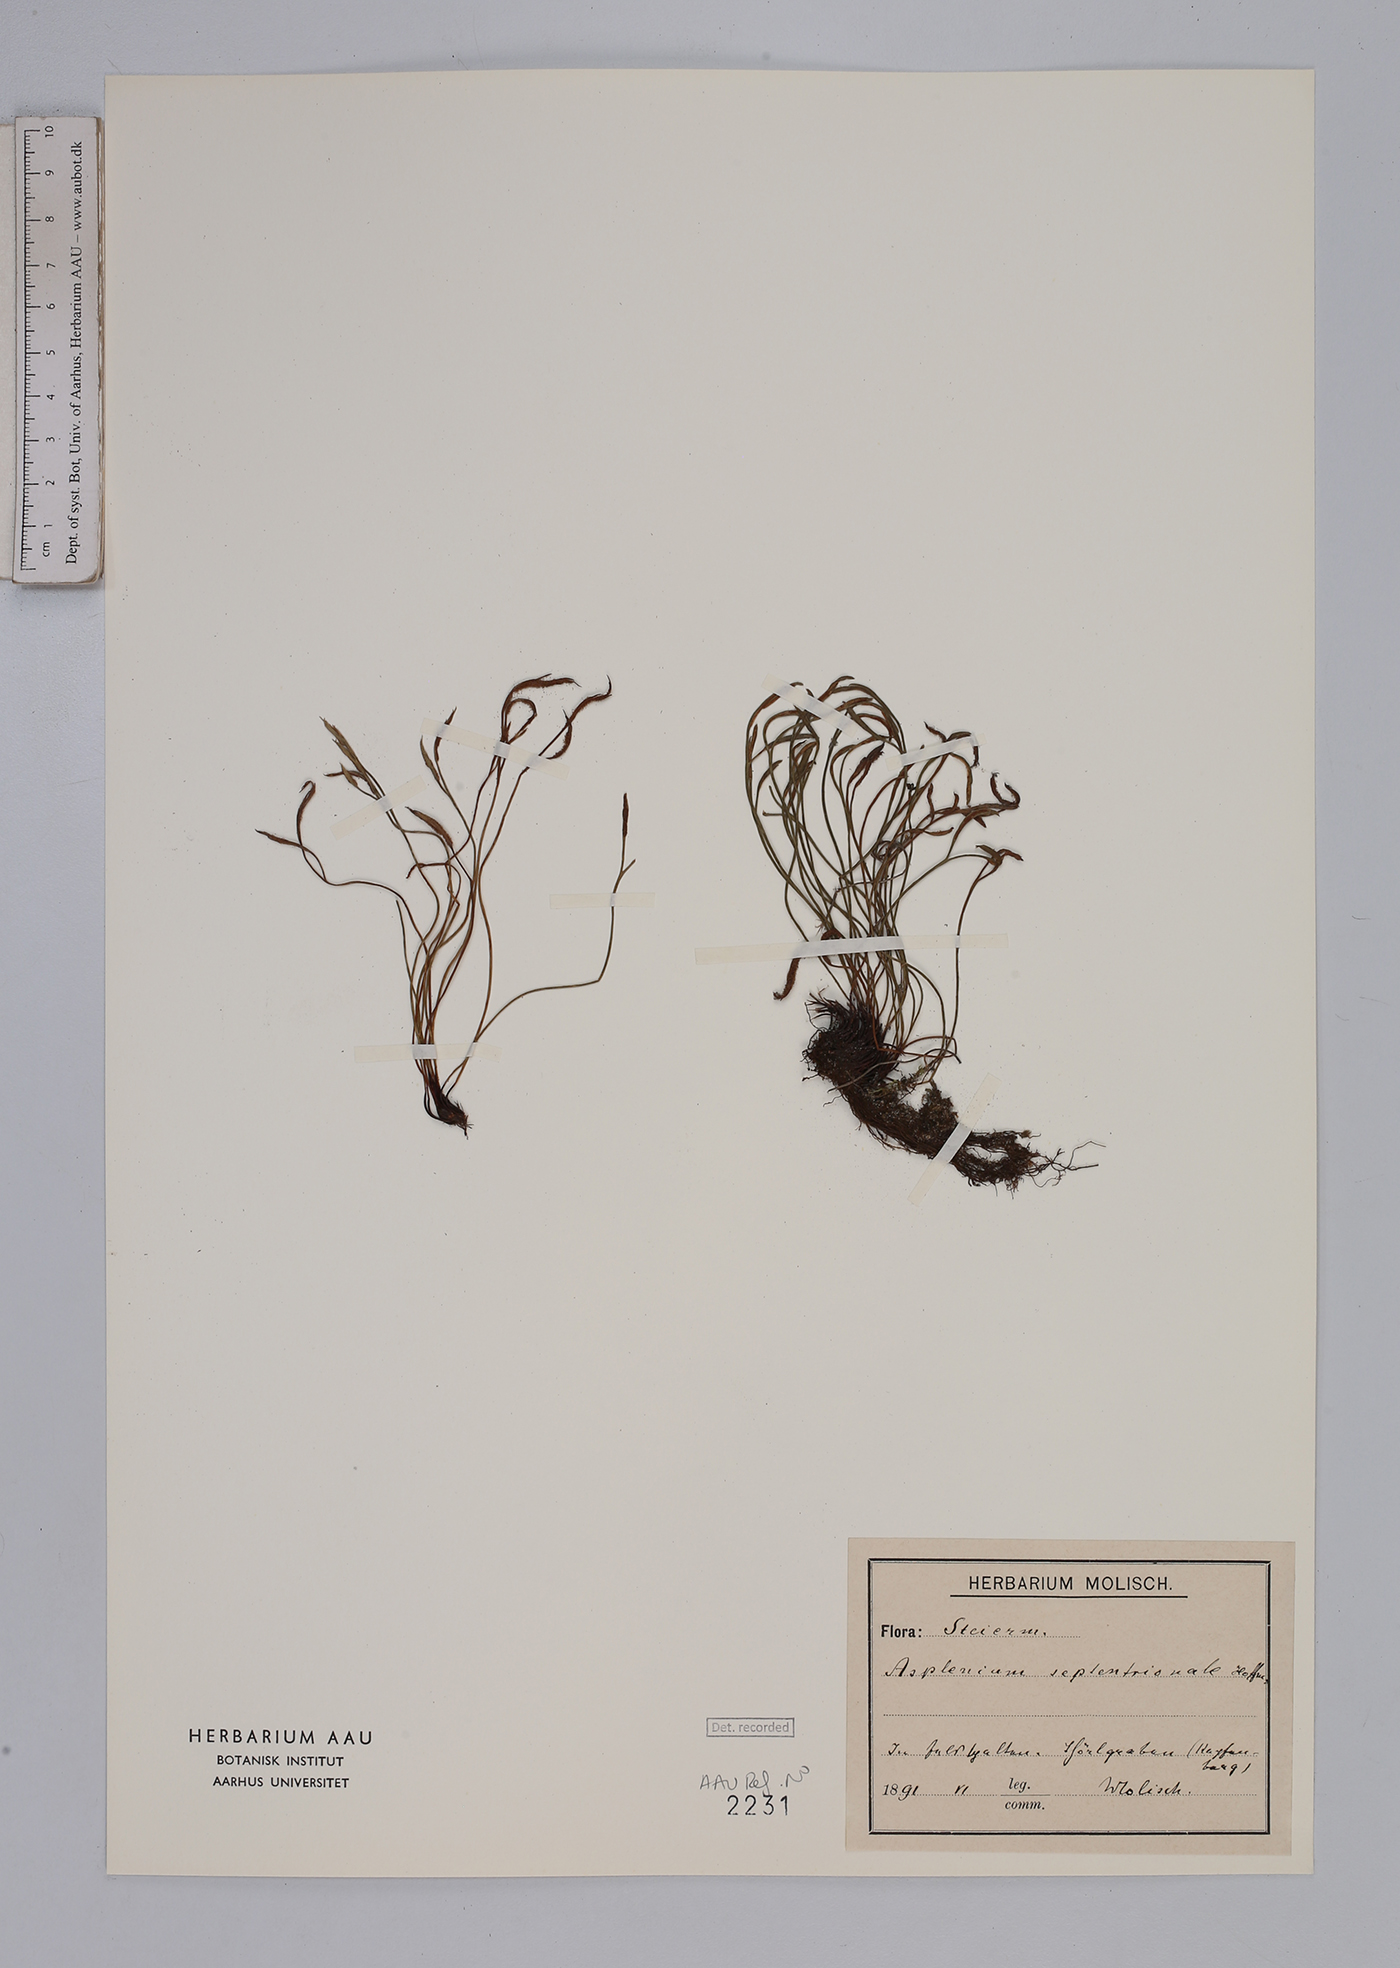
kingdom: Plantae
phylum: Tracheophyta
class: Polypodiopsida
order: Polypodiales
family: Aspleniaceae
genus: Asplenium
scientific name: Asplenium septentrionale
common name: Forked spleenwort
